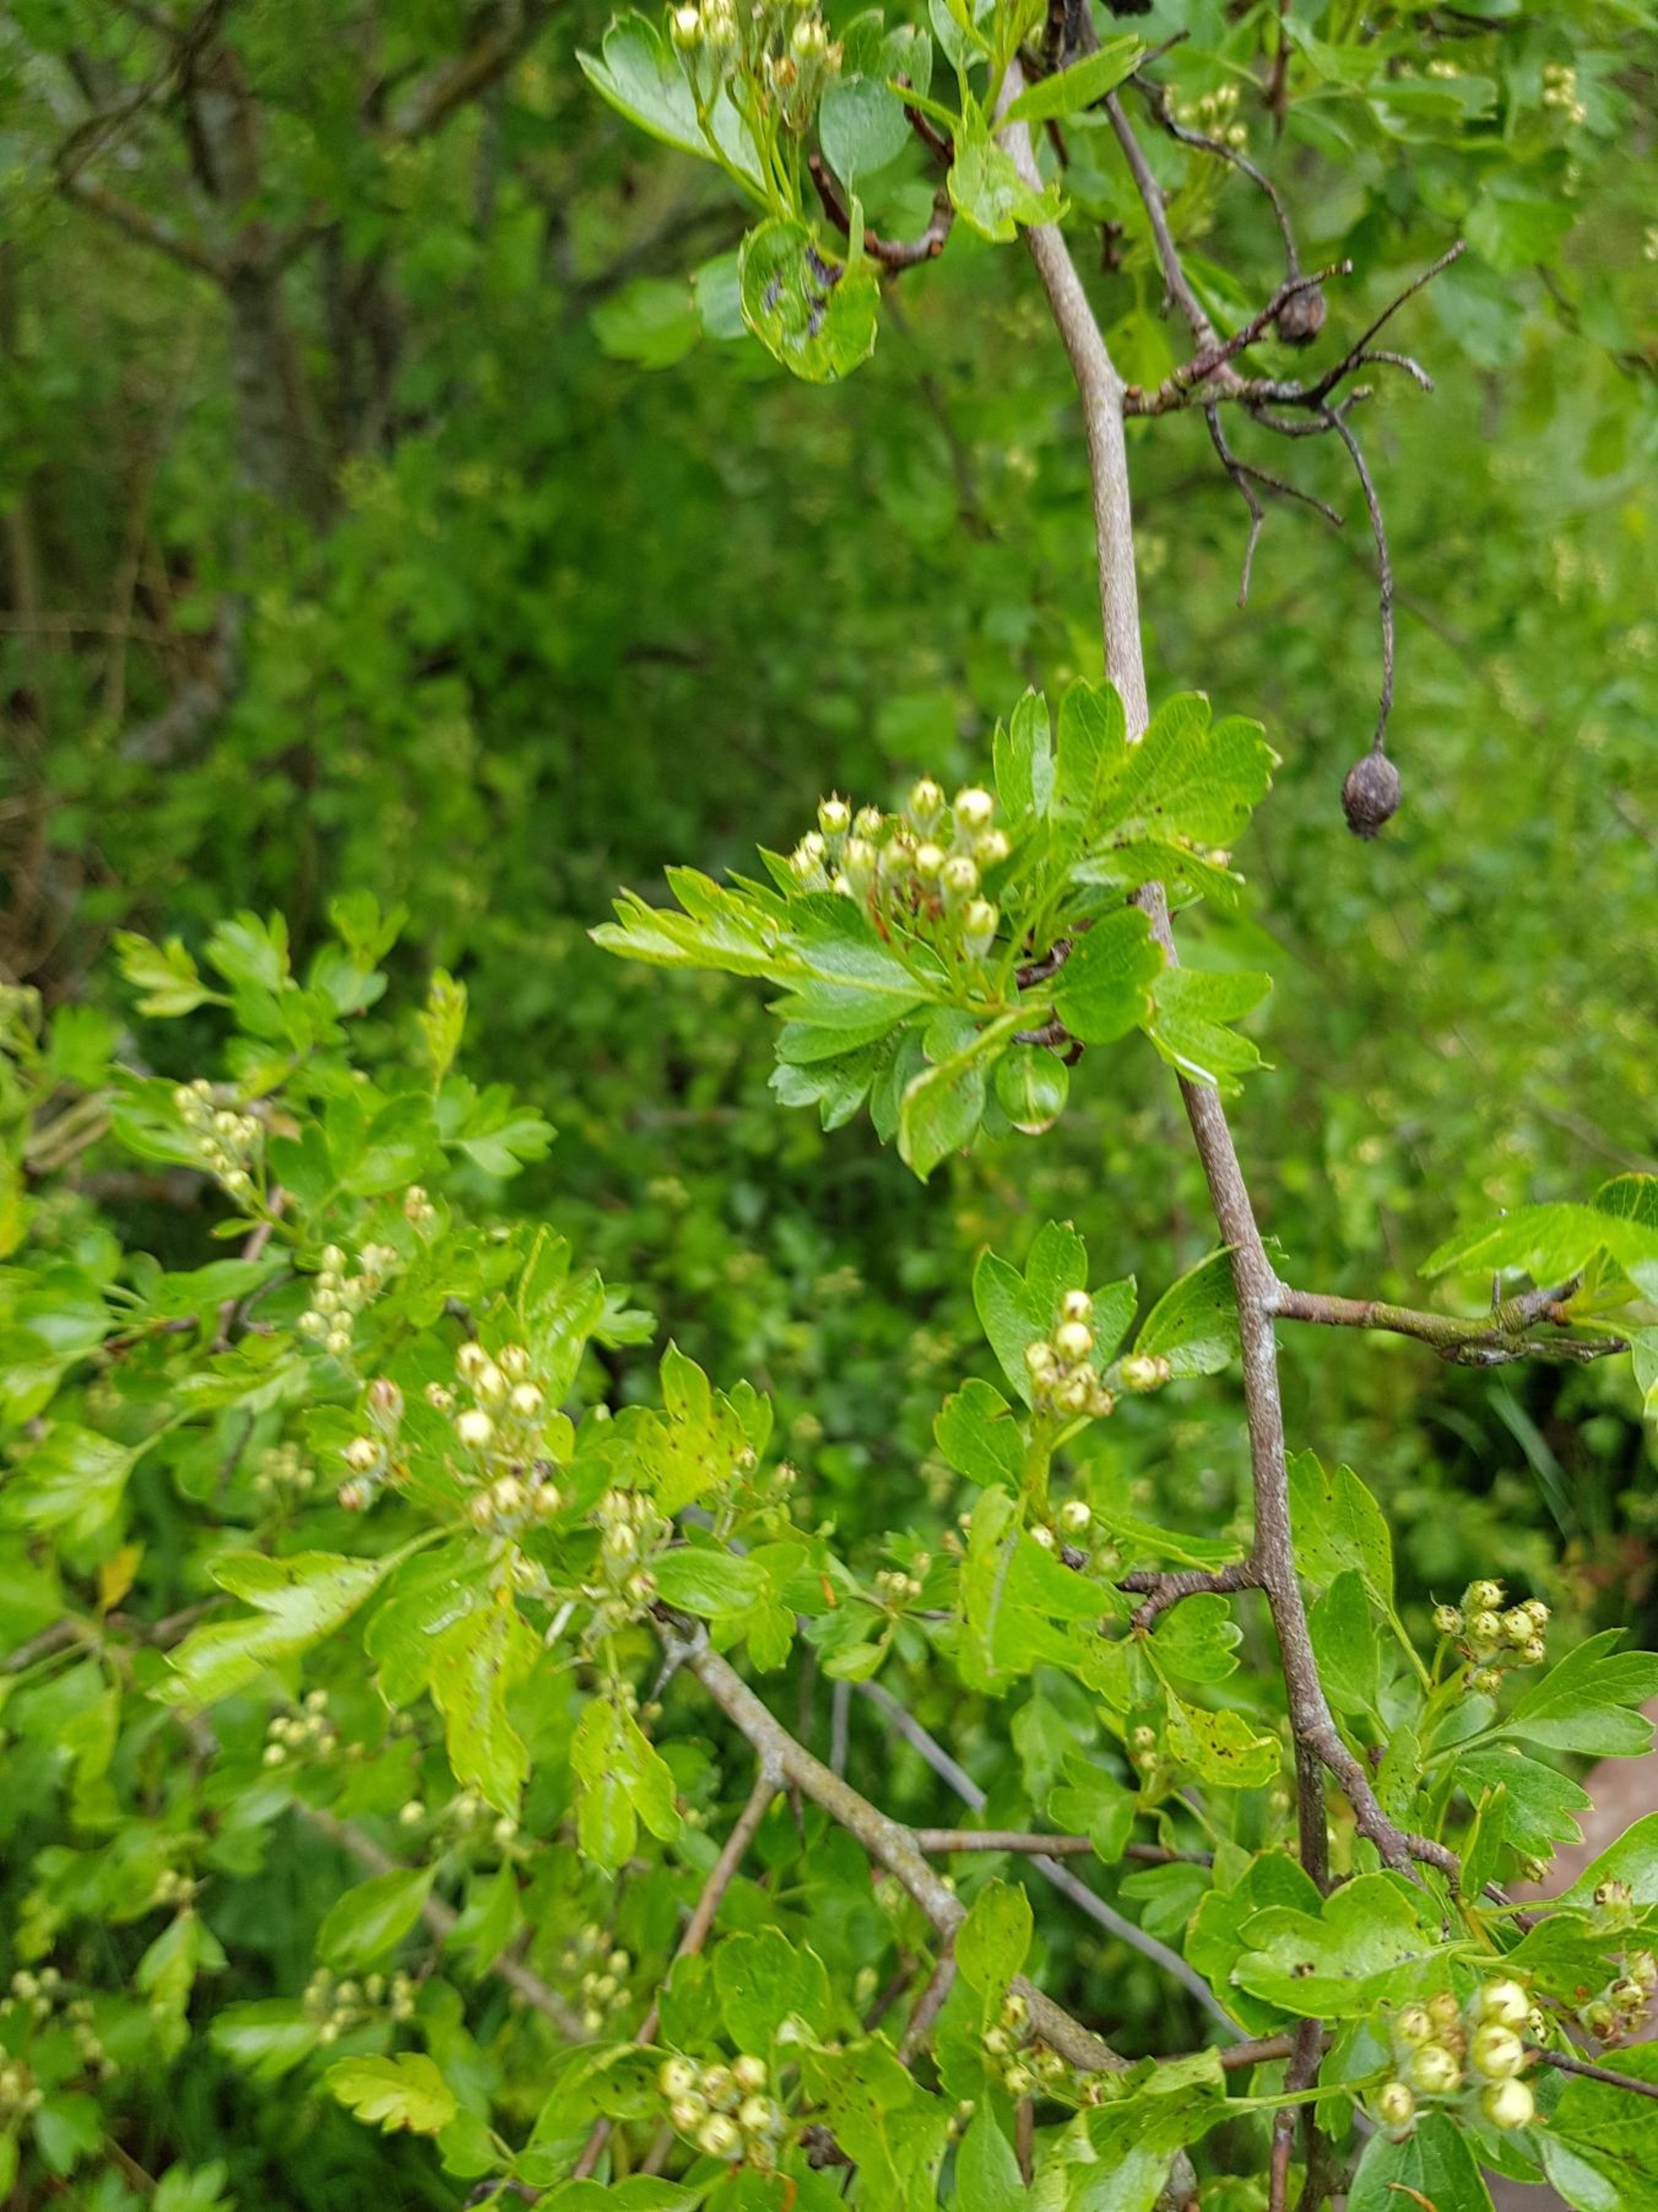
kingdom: Plantae
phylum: Tracheophyta
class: Magnoliopsida
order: Rosales
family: Rosaceae
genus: Crataegus
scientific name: Crataegus media
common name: Almindelig hvidtjørn × engriflet hvidtjørn
